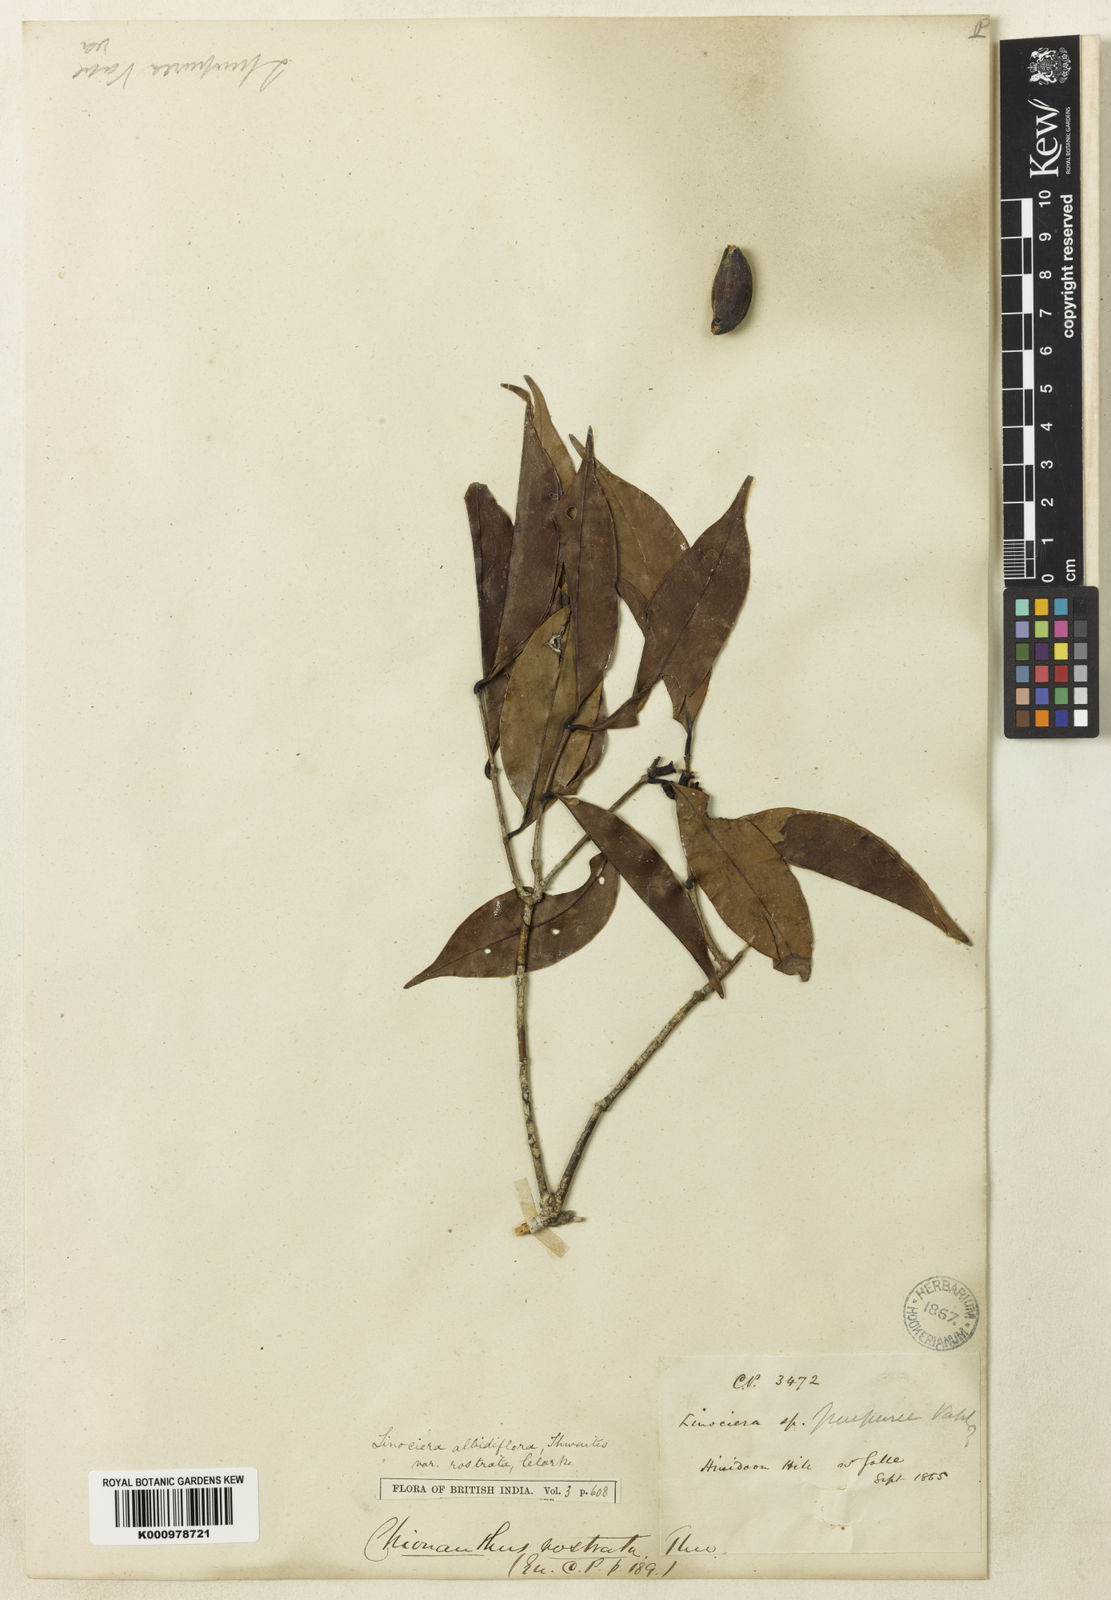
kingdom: Plantae
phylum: Tracheophyta
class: Magnoliopsida
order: Lamiales
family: Oleaceae
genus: Chionanthus
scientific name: Chionanthus albidiflorus
